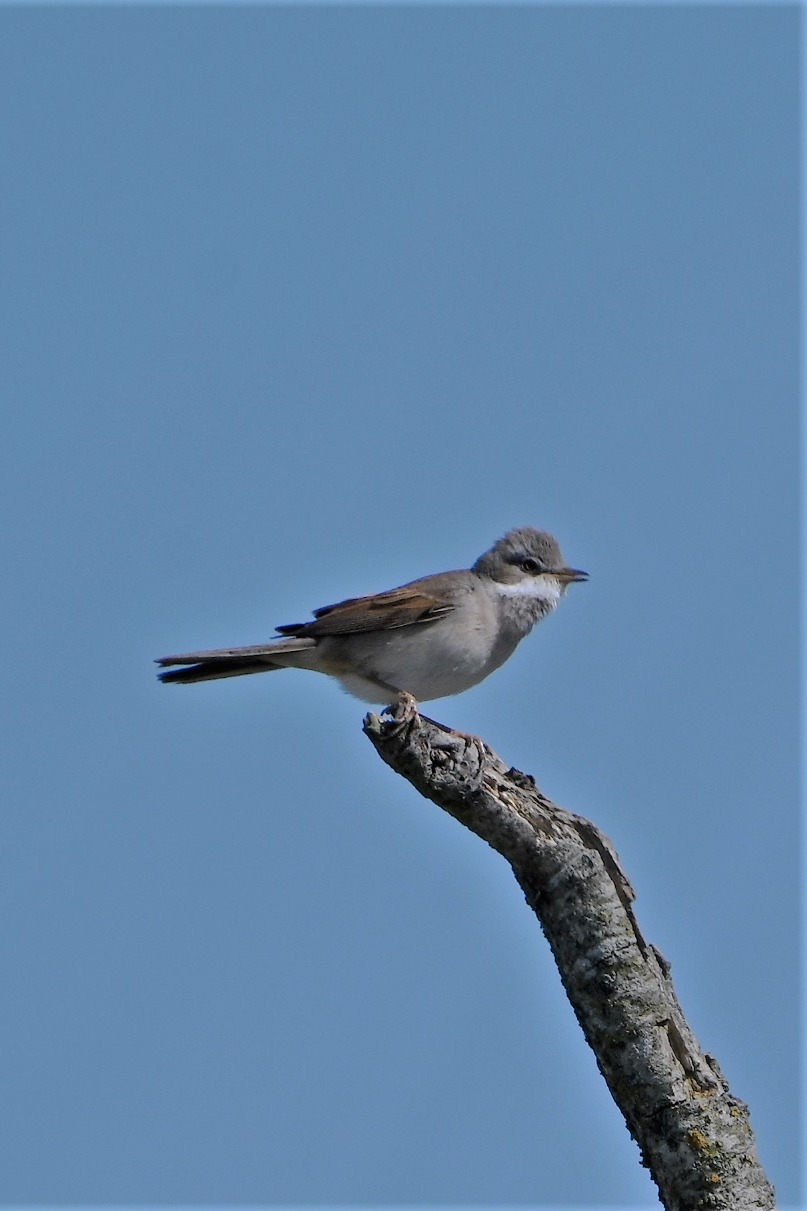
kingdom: Animalia
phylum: Chordata
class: Aves
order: Passeriformes
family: Sylviidae
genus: Sylvia
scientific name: Sylvia communis
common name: Tornsanger
